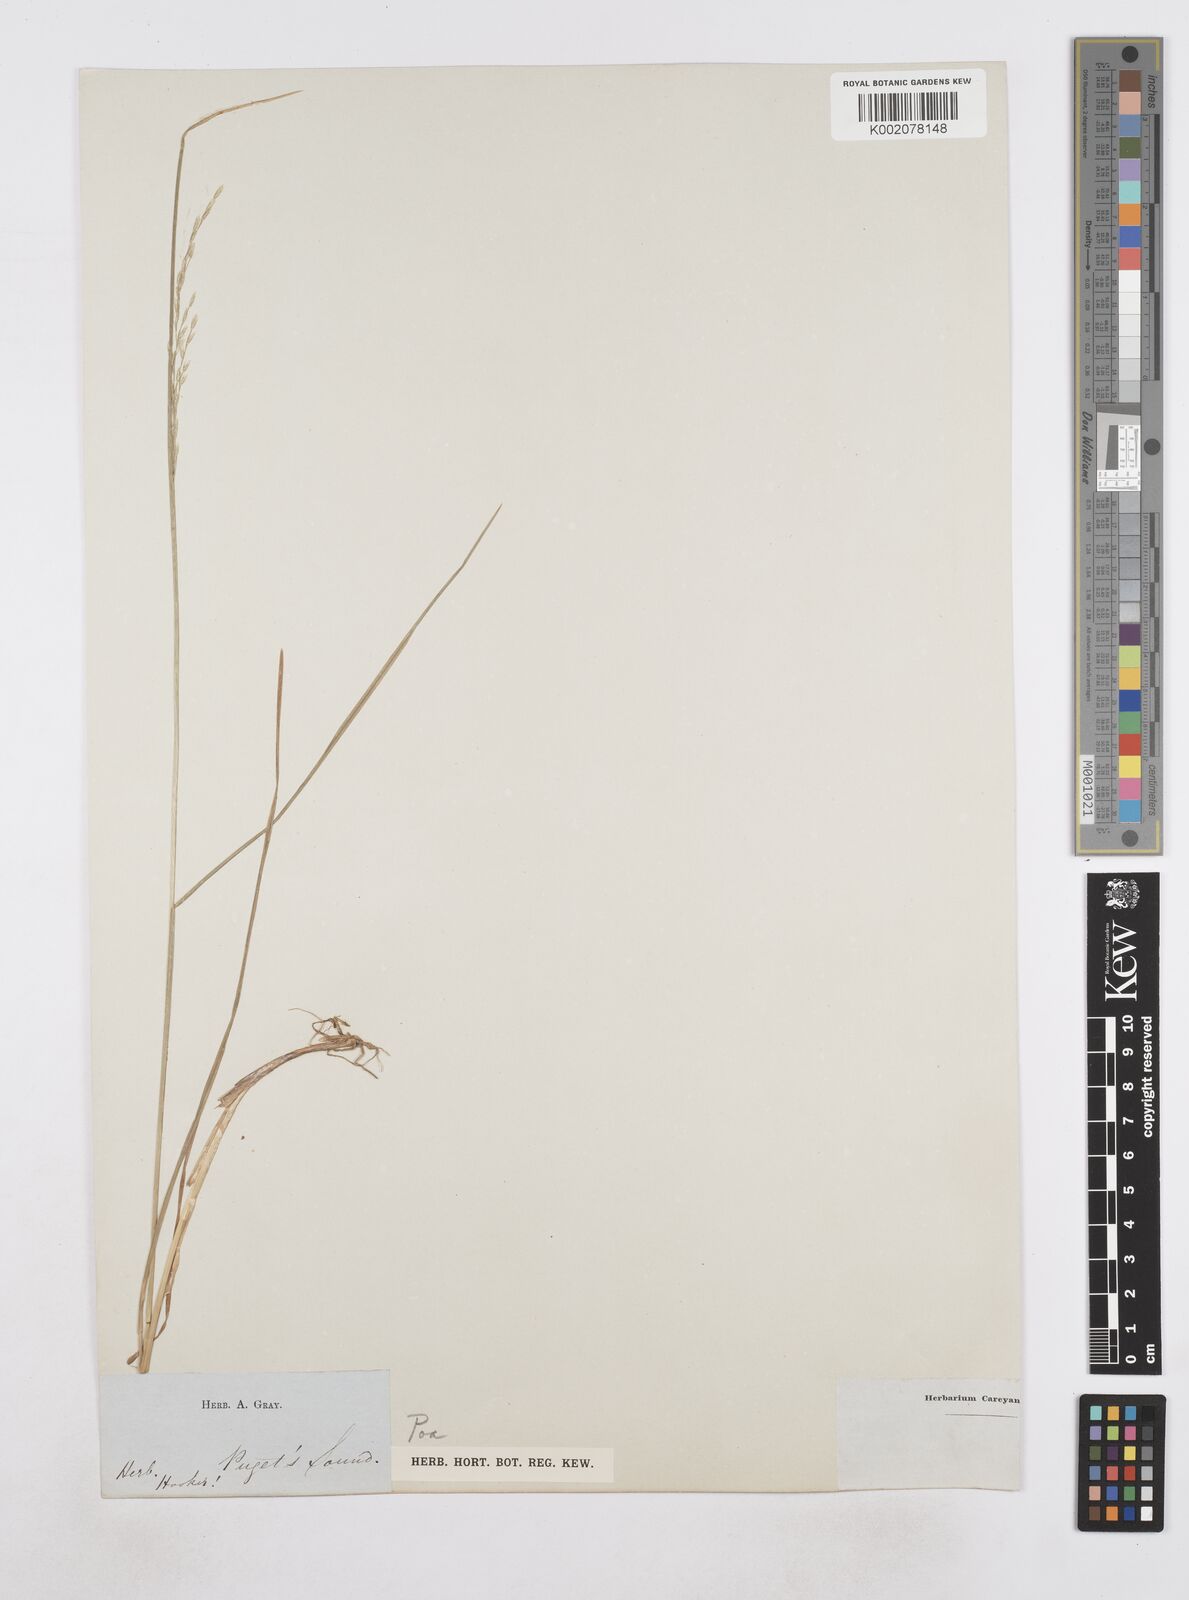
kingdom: Plantae
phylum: Tracheophyta
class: Liliopsida
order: Poales
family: Poaceae
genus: Poa
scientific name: Poa
